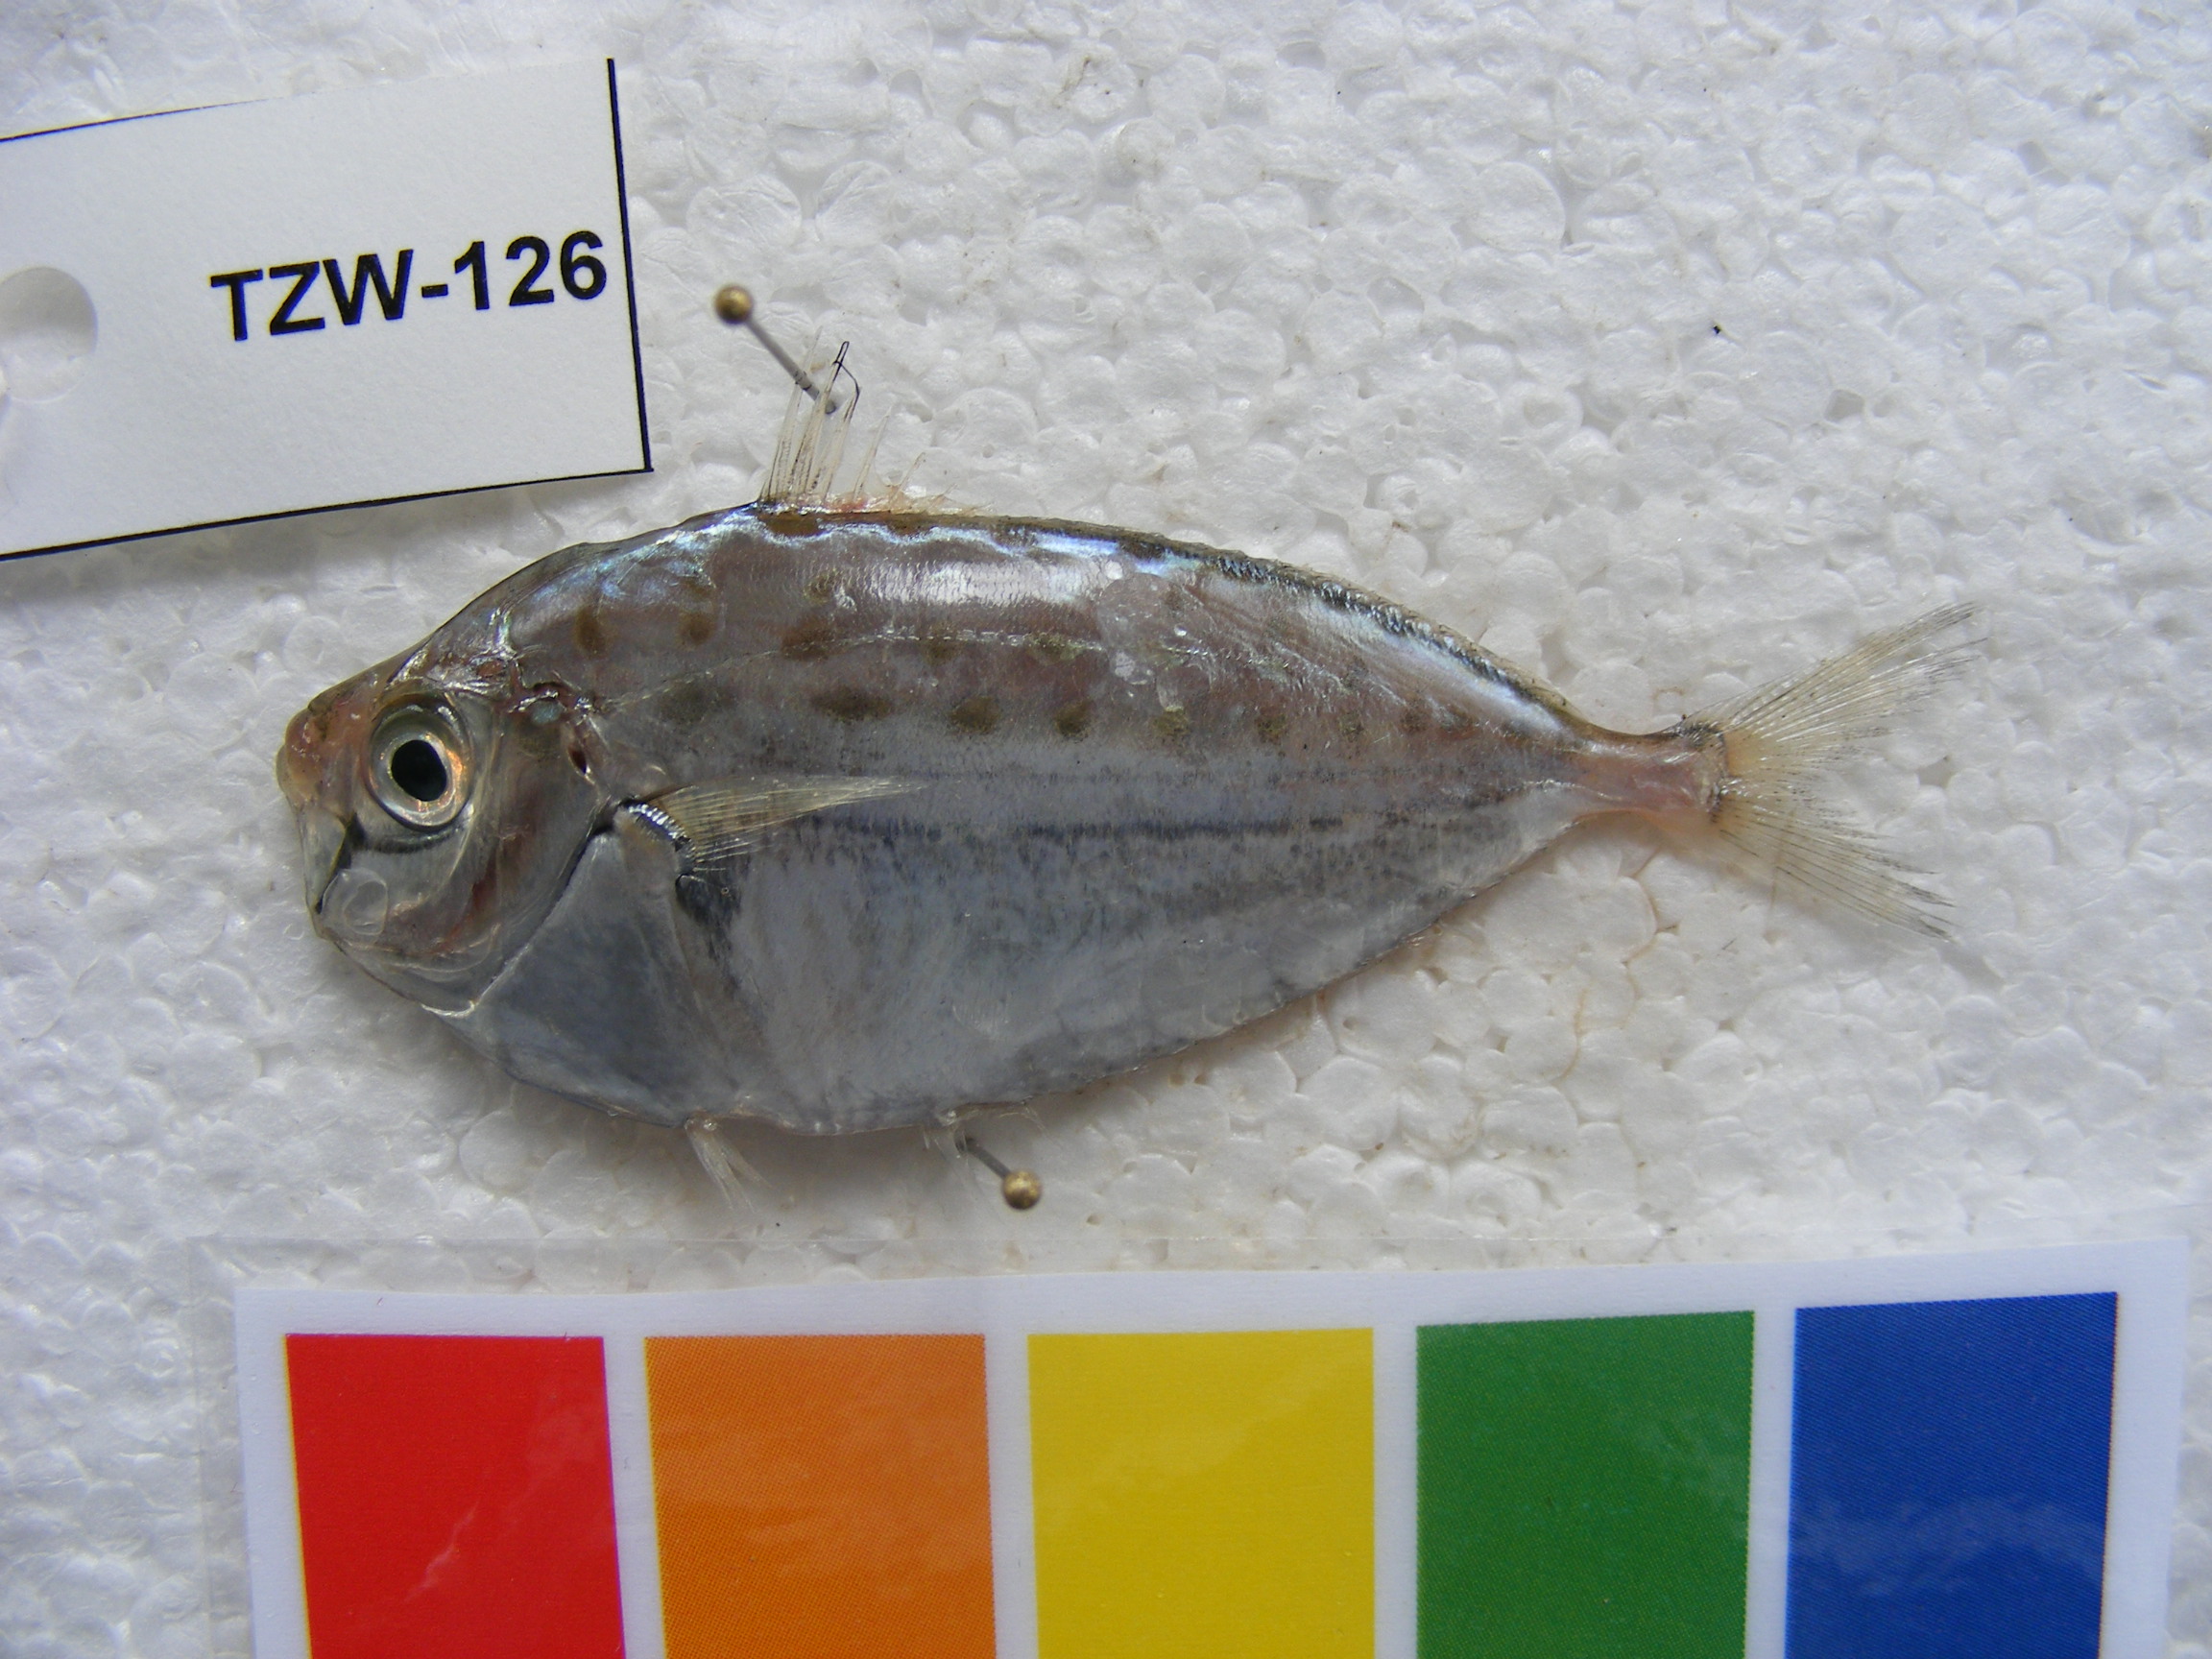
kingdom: Animalia
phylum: Chordata
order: Perciformes
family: Leiognathidae
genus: Secutor
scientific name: Secutor ruconius
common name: Deep pugnose ponyfish
